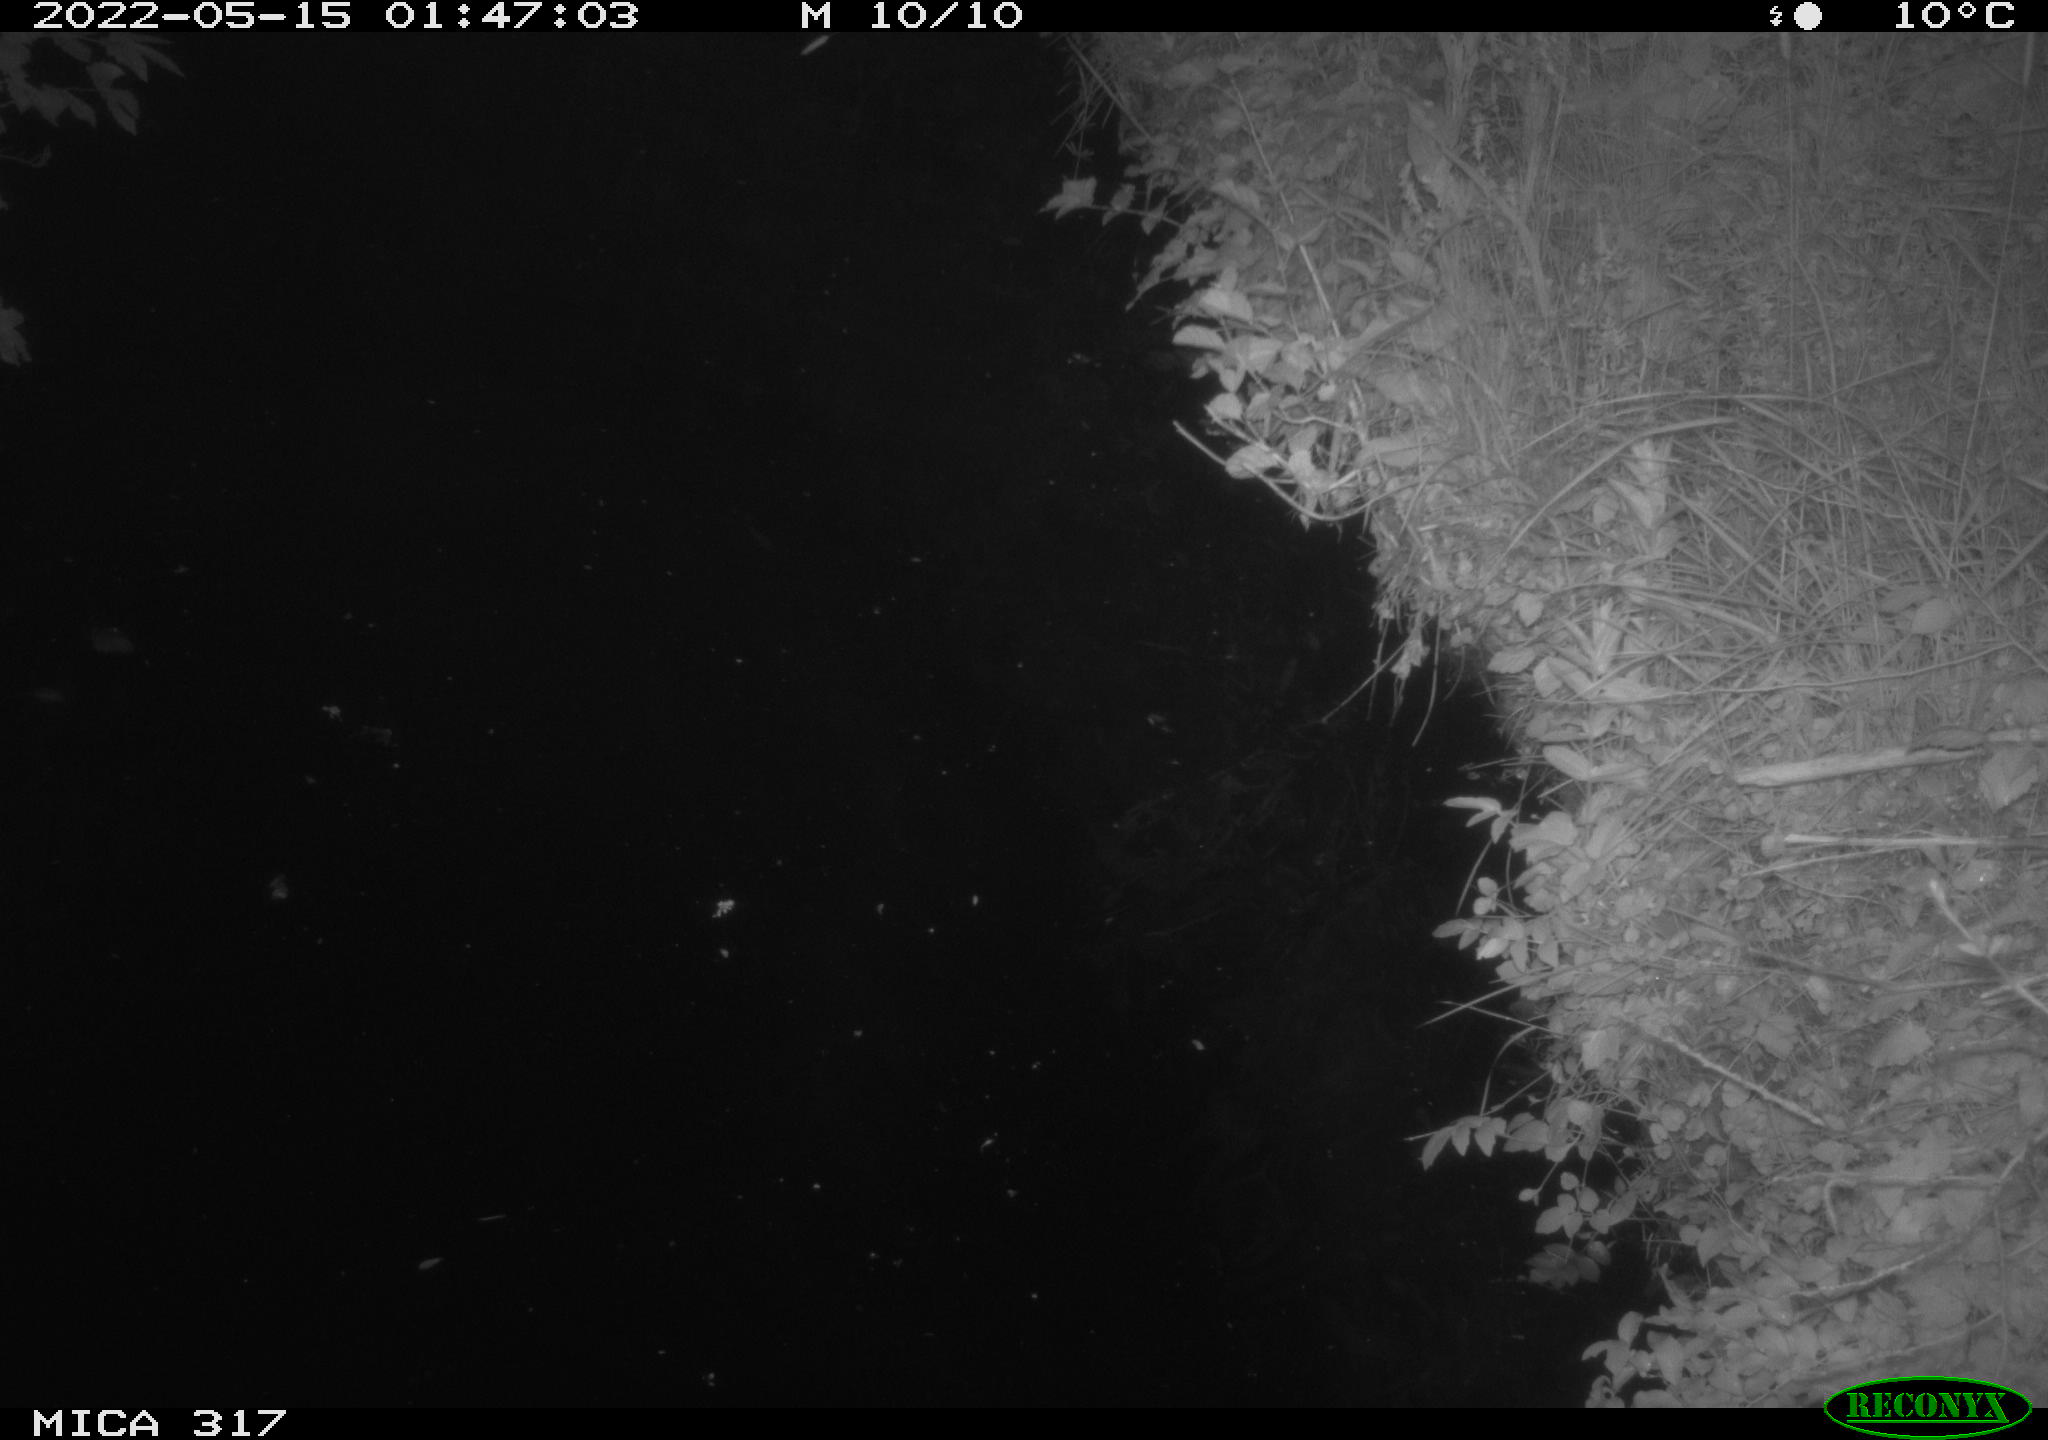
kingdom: Animalia
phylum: Chordata
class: Aves
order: Anseriformes
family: Anatidae
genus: Anas
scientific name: Anas
